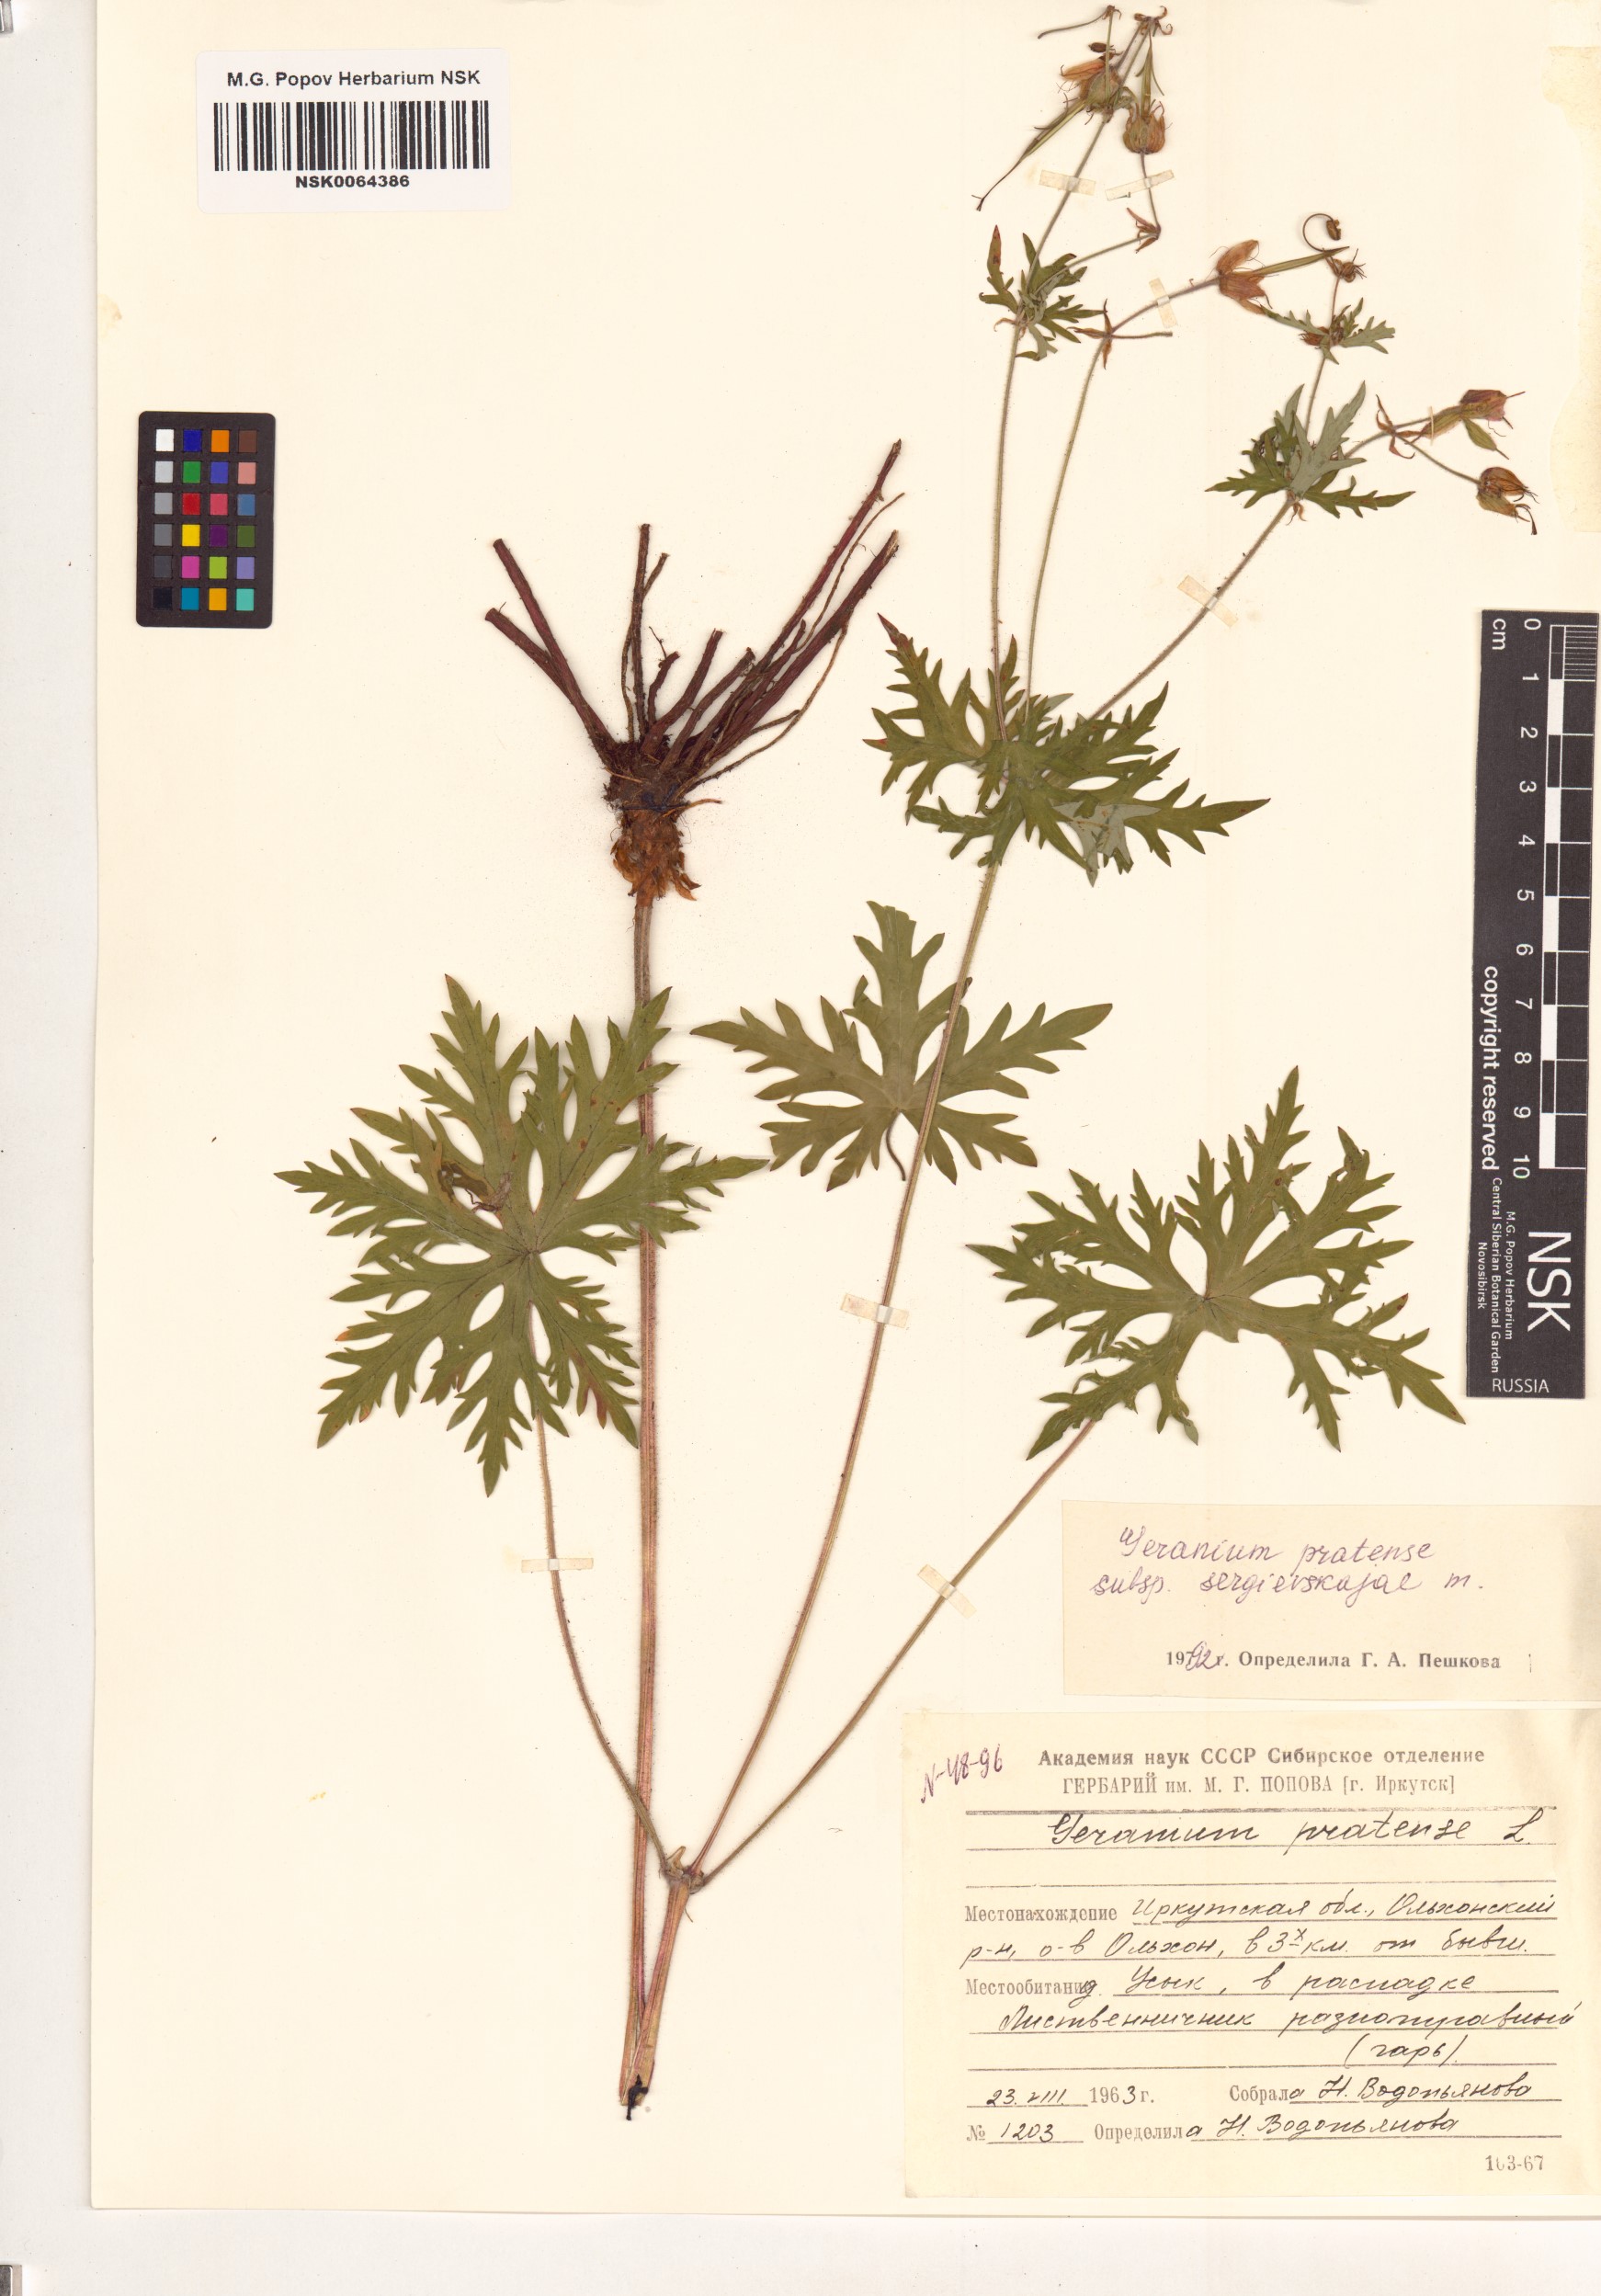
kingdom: Plantae
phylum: Tracheophyta
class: Magnoliopsida
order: Geraniales
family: Geraniaceae
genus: Geranium
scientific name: Geranium pratense
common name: Meadow crane's-bill
